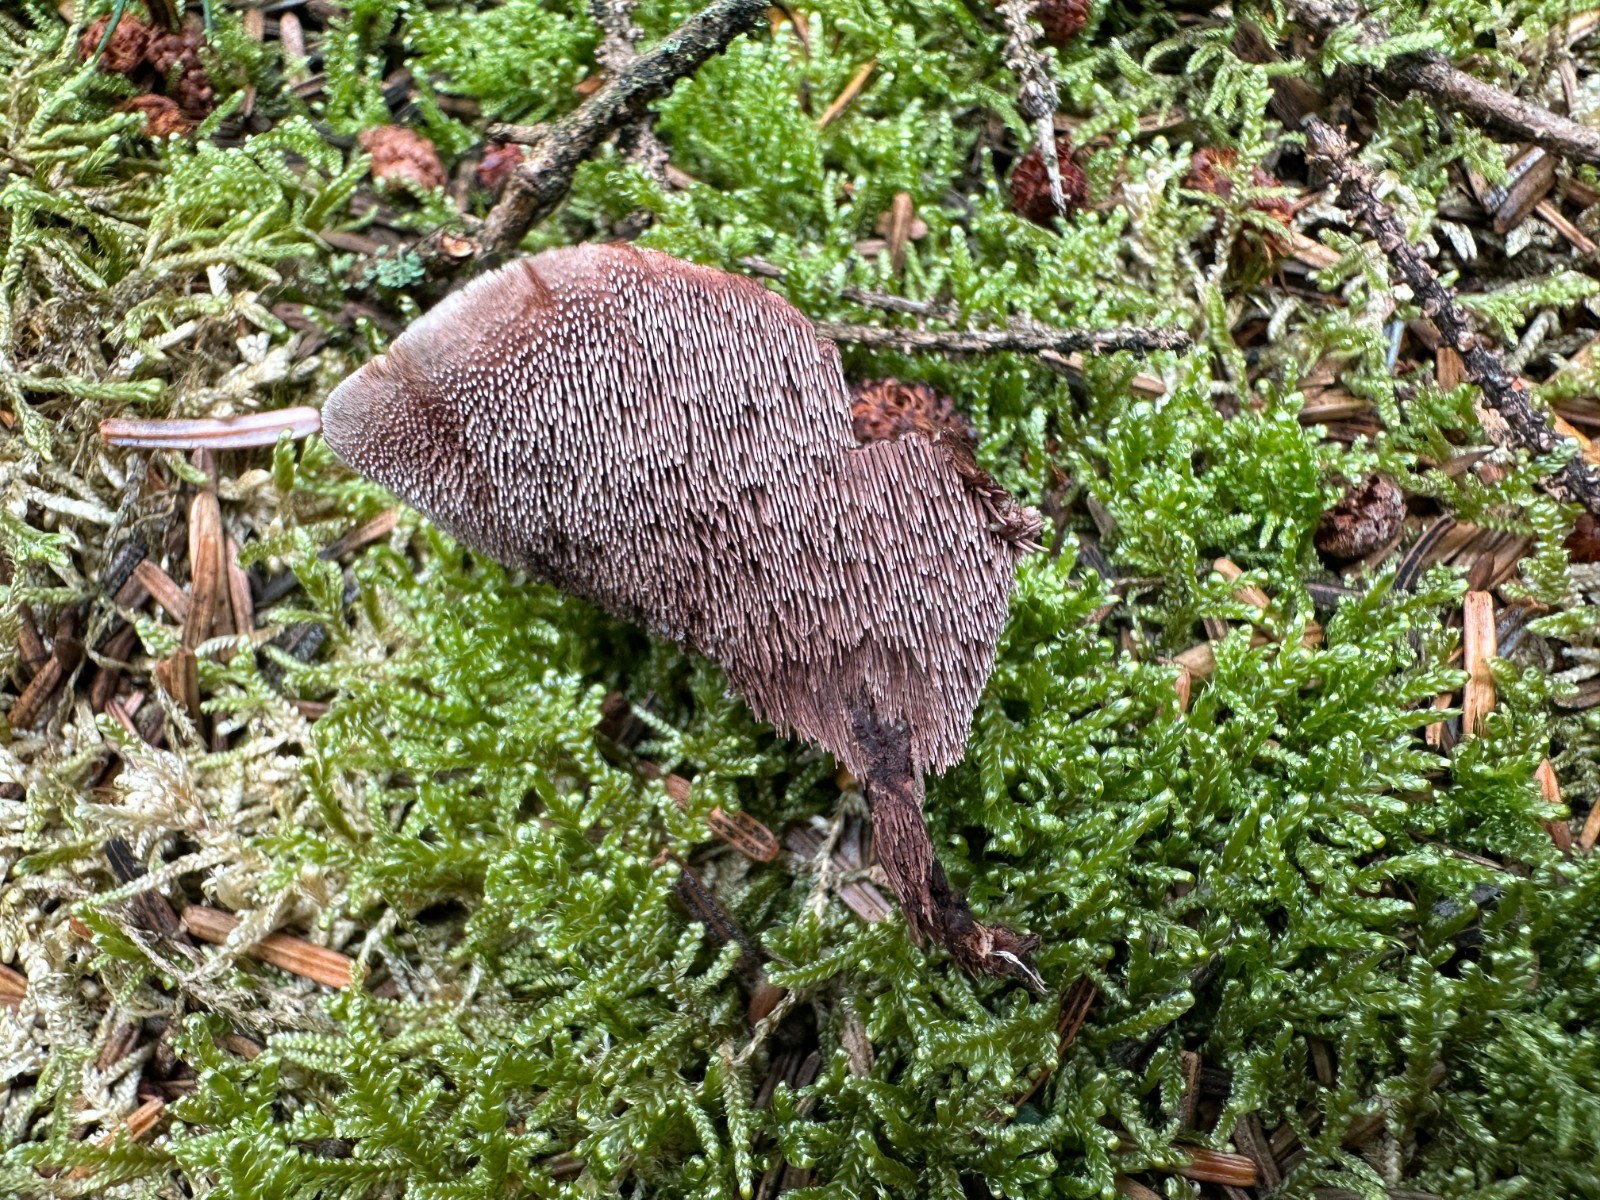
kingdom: Fungi
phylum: Basidiomycota
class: Agaricomycetes
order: Thelephorales
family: Bankeraceae
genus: Hydnellum
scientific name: Hydnellum gracilipes
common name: tyndstokket korkpigsvamp
